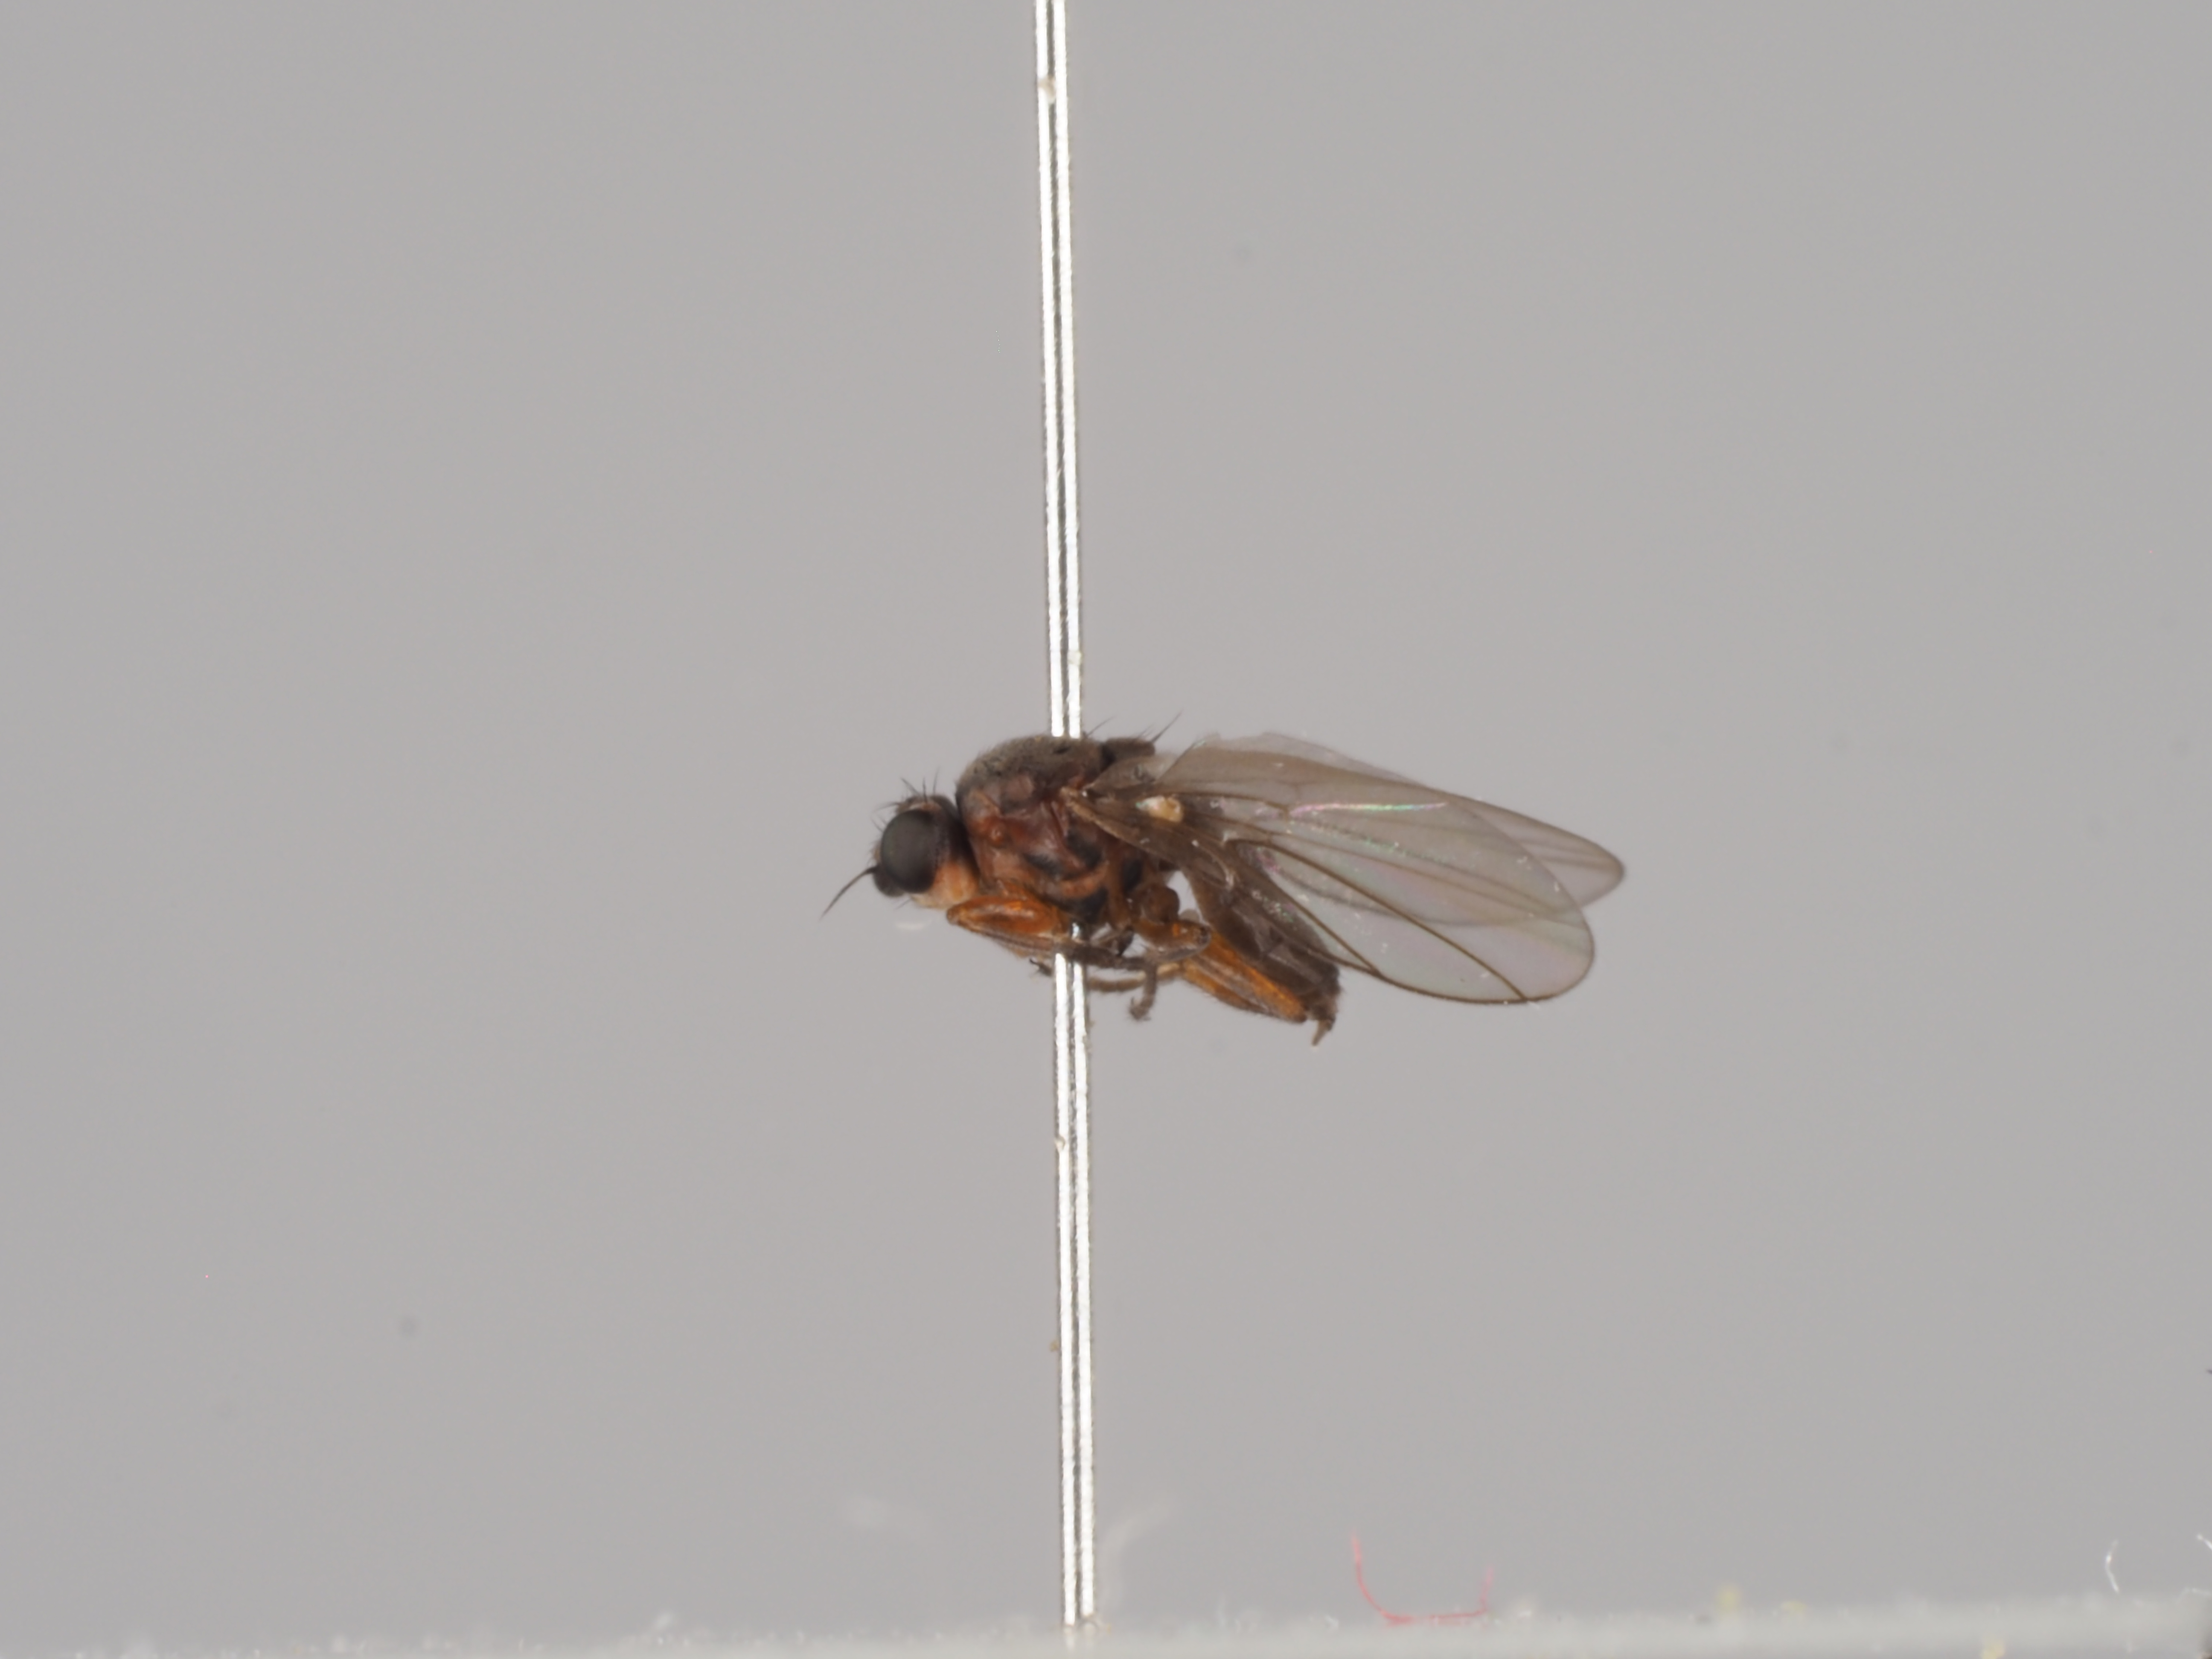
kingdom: Animalia
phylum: Arthropoda
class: Insecta
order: Diptera
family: Chloropidae
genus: Pseudopachychaeta
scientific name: Pseudopachychaeta ruficeps
